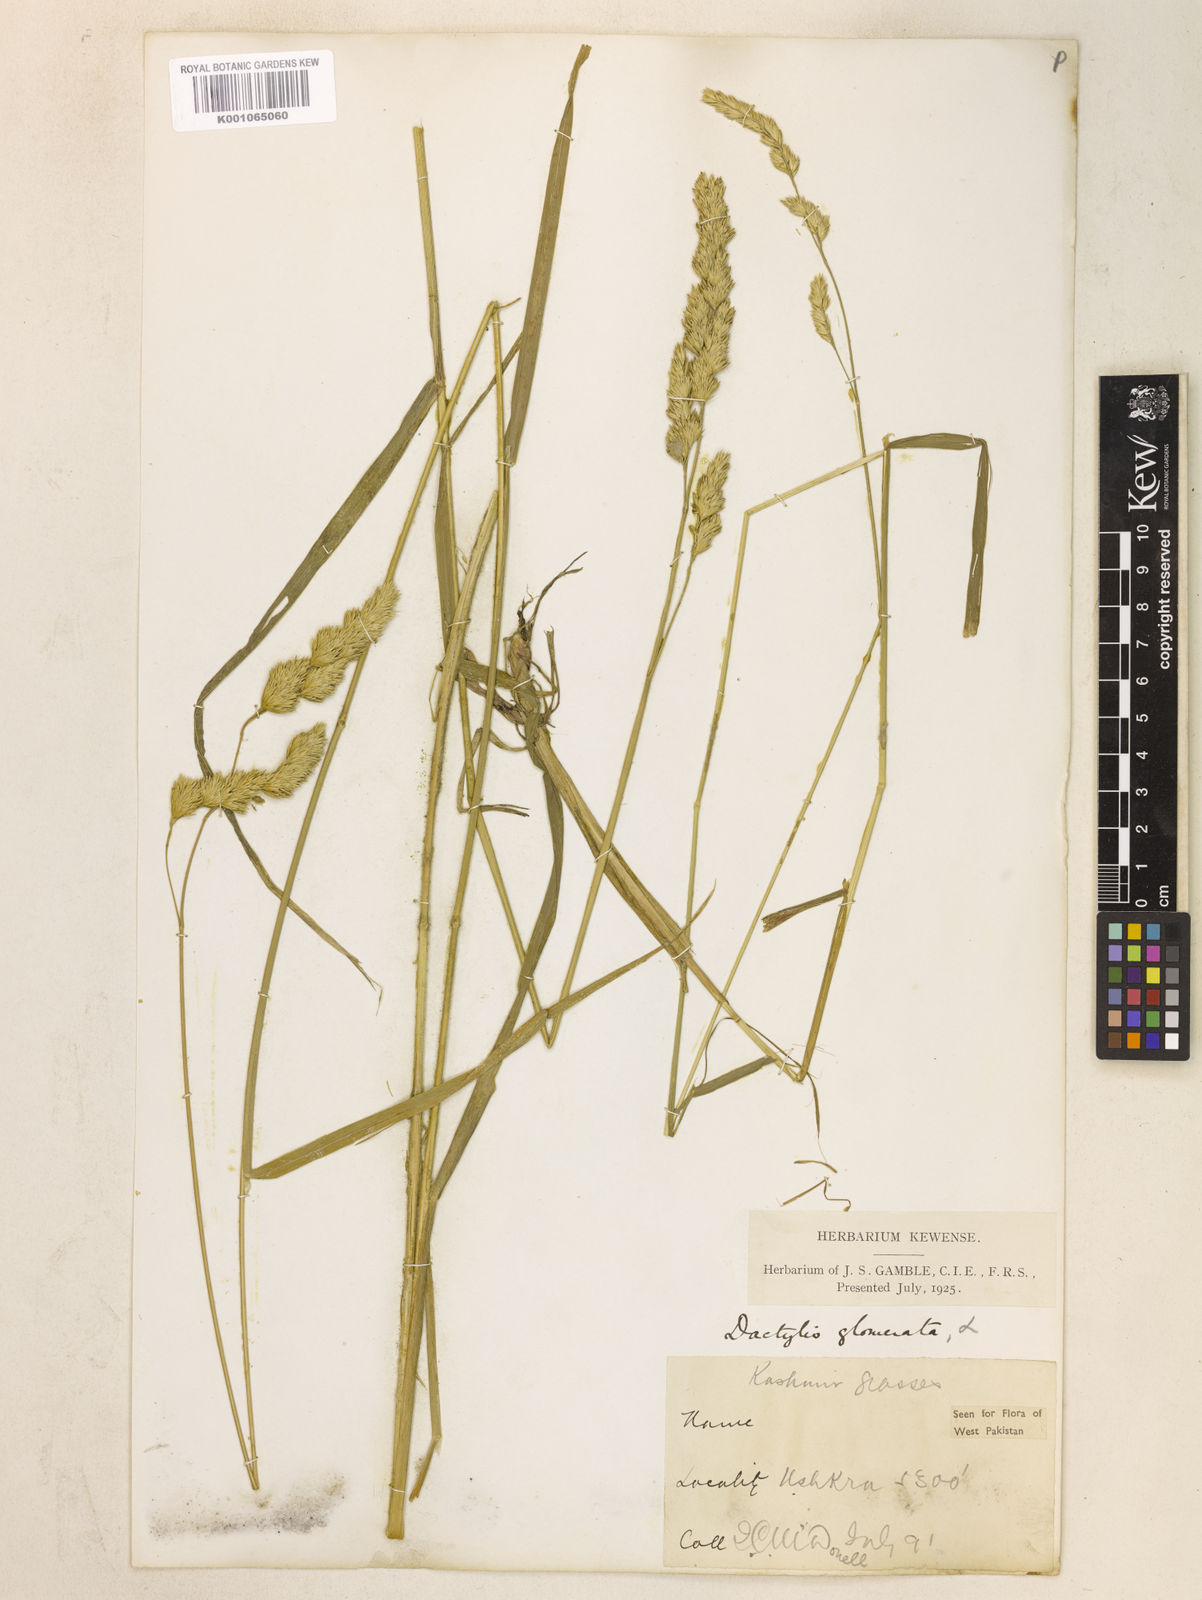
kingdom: Plantae
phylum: Tracheophyta
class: Liliopsida
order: Poales
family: Poaceae
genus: Dactylis
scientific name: Dactylis glomerata
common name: Orchardgrass
